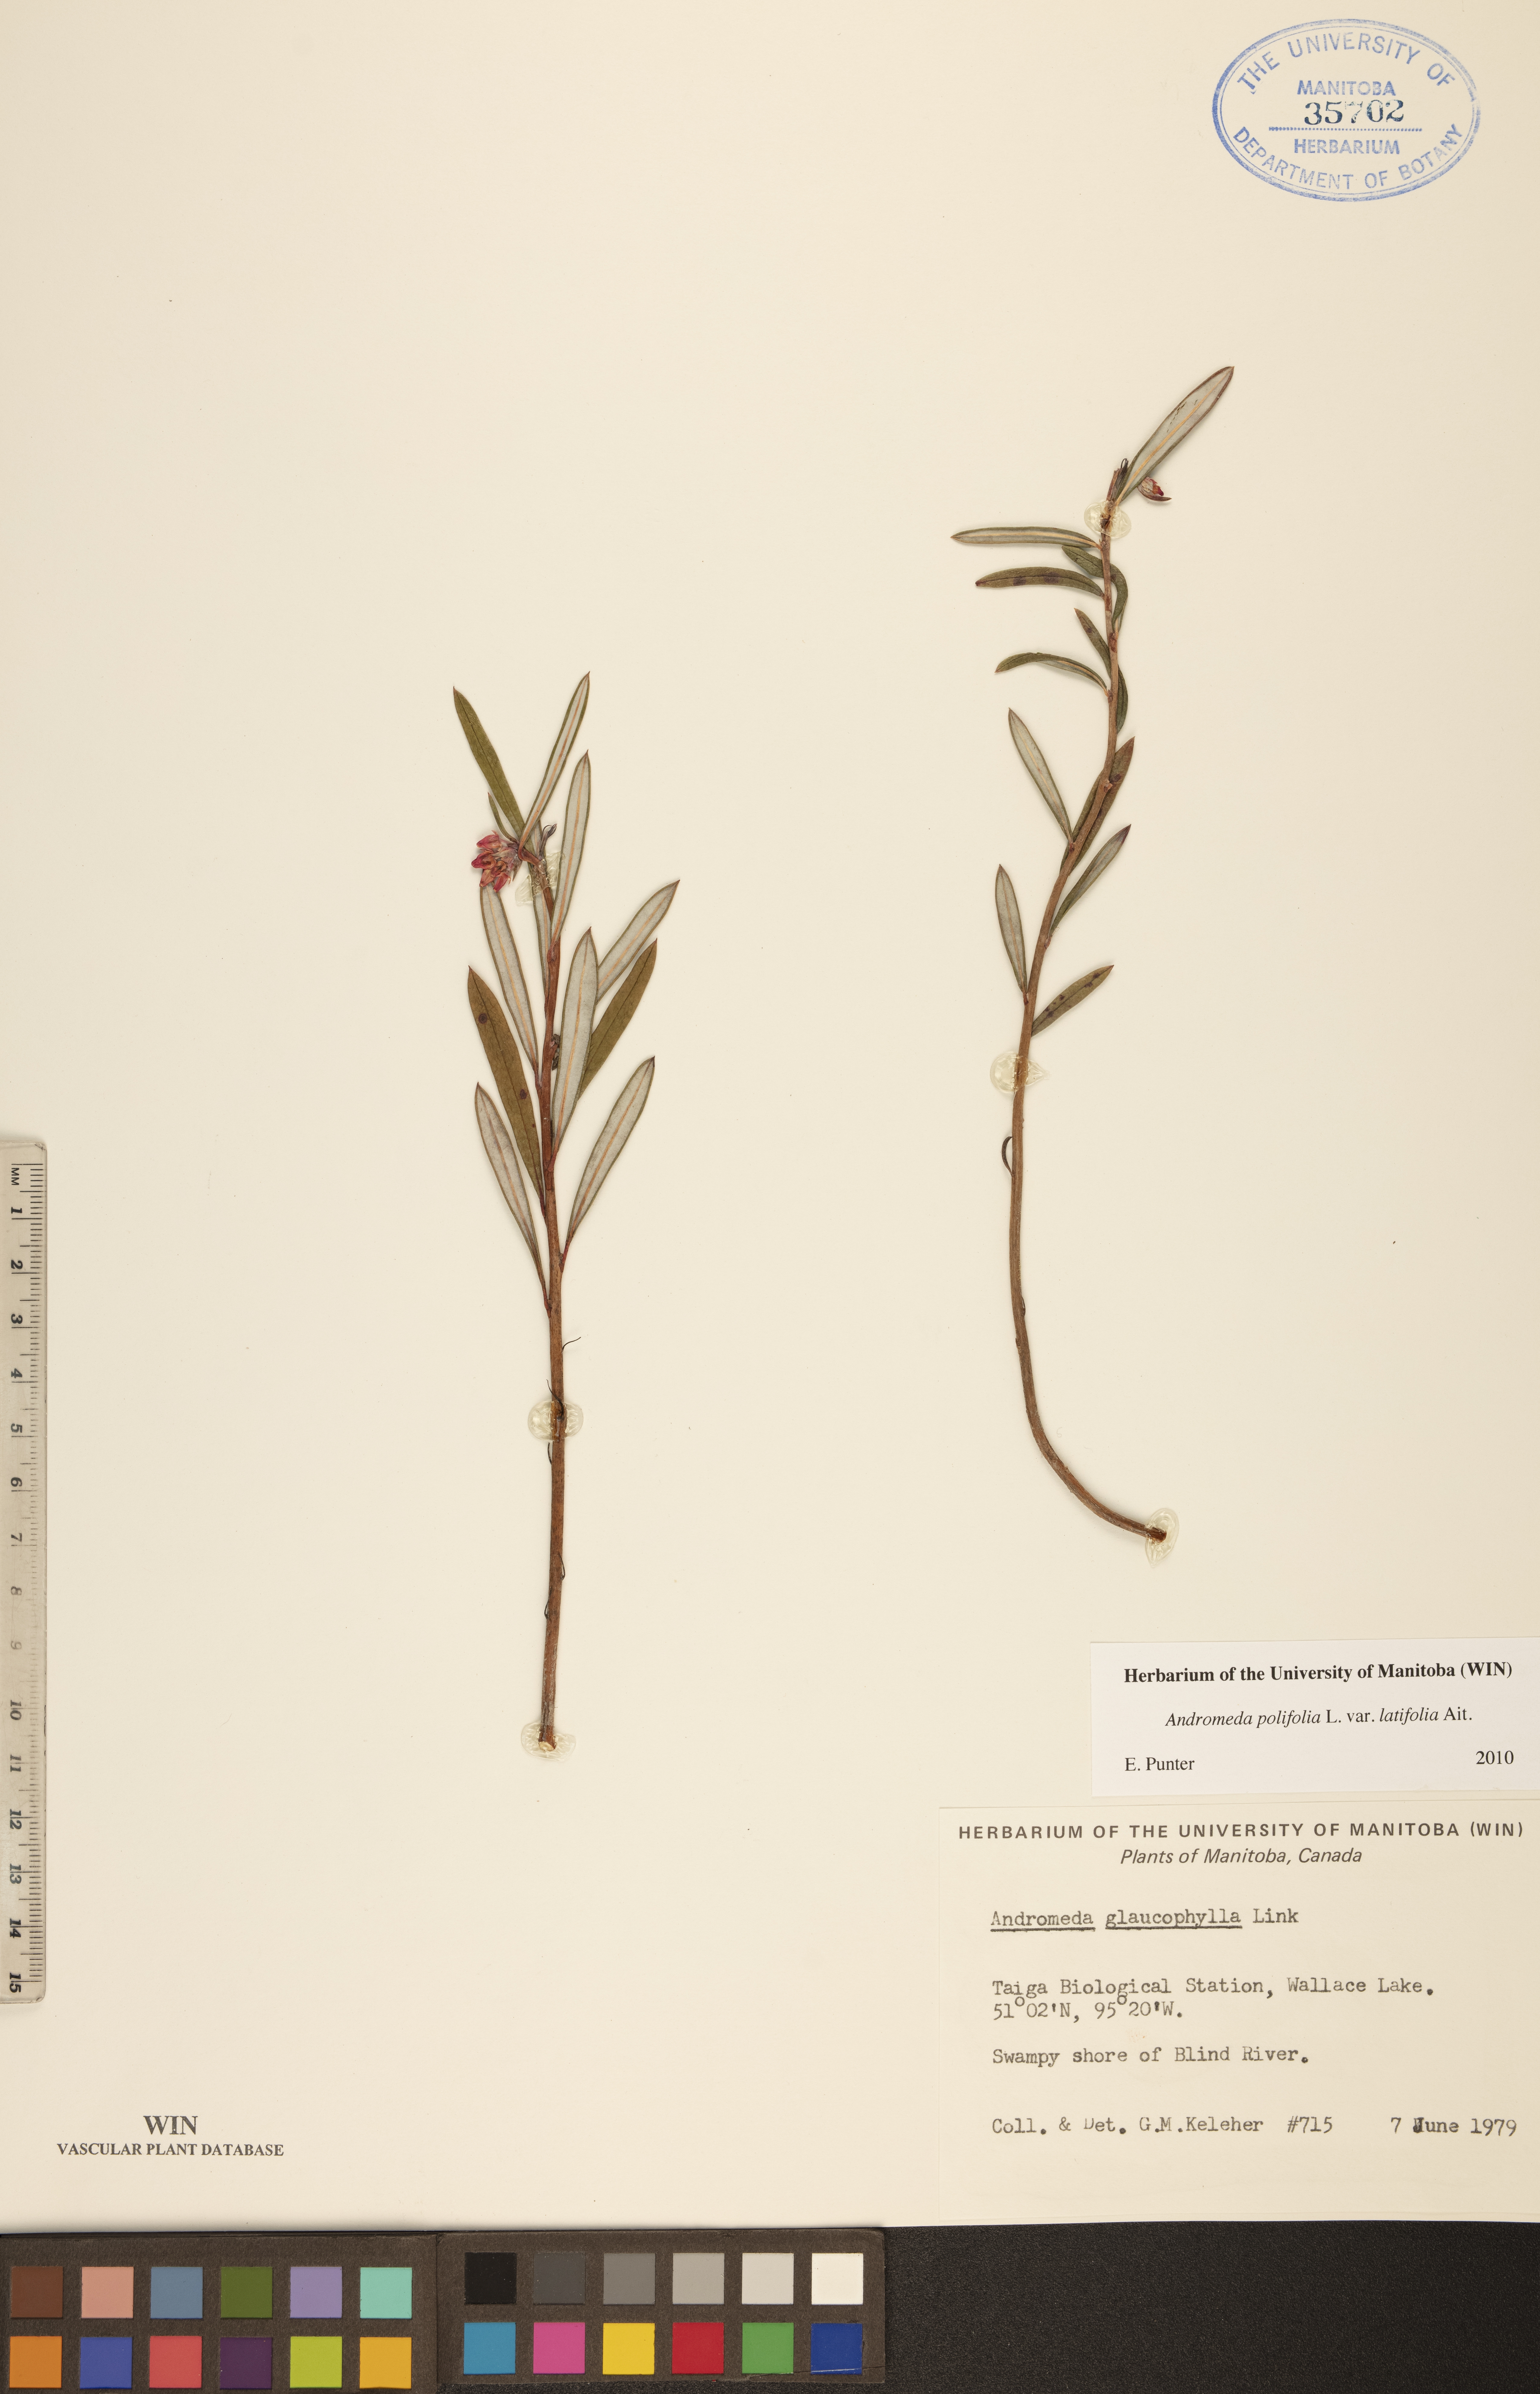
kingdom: Plantae
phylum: Tracheophyta
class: Magnoliopsida
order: Ericales
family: Ericaceae
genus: Andromeda
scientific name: Andromeda polifolia
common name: Bog-rosemary
